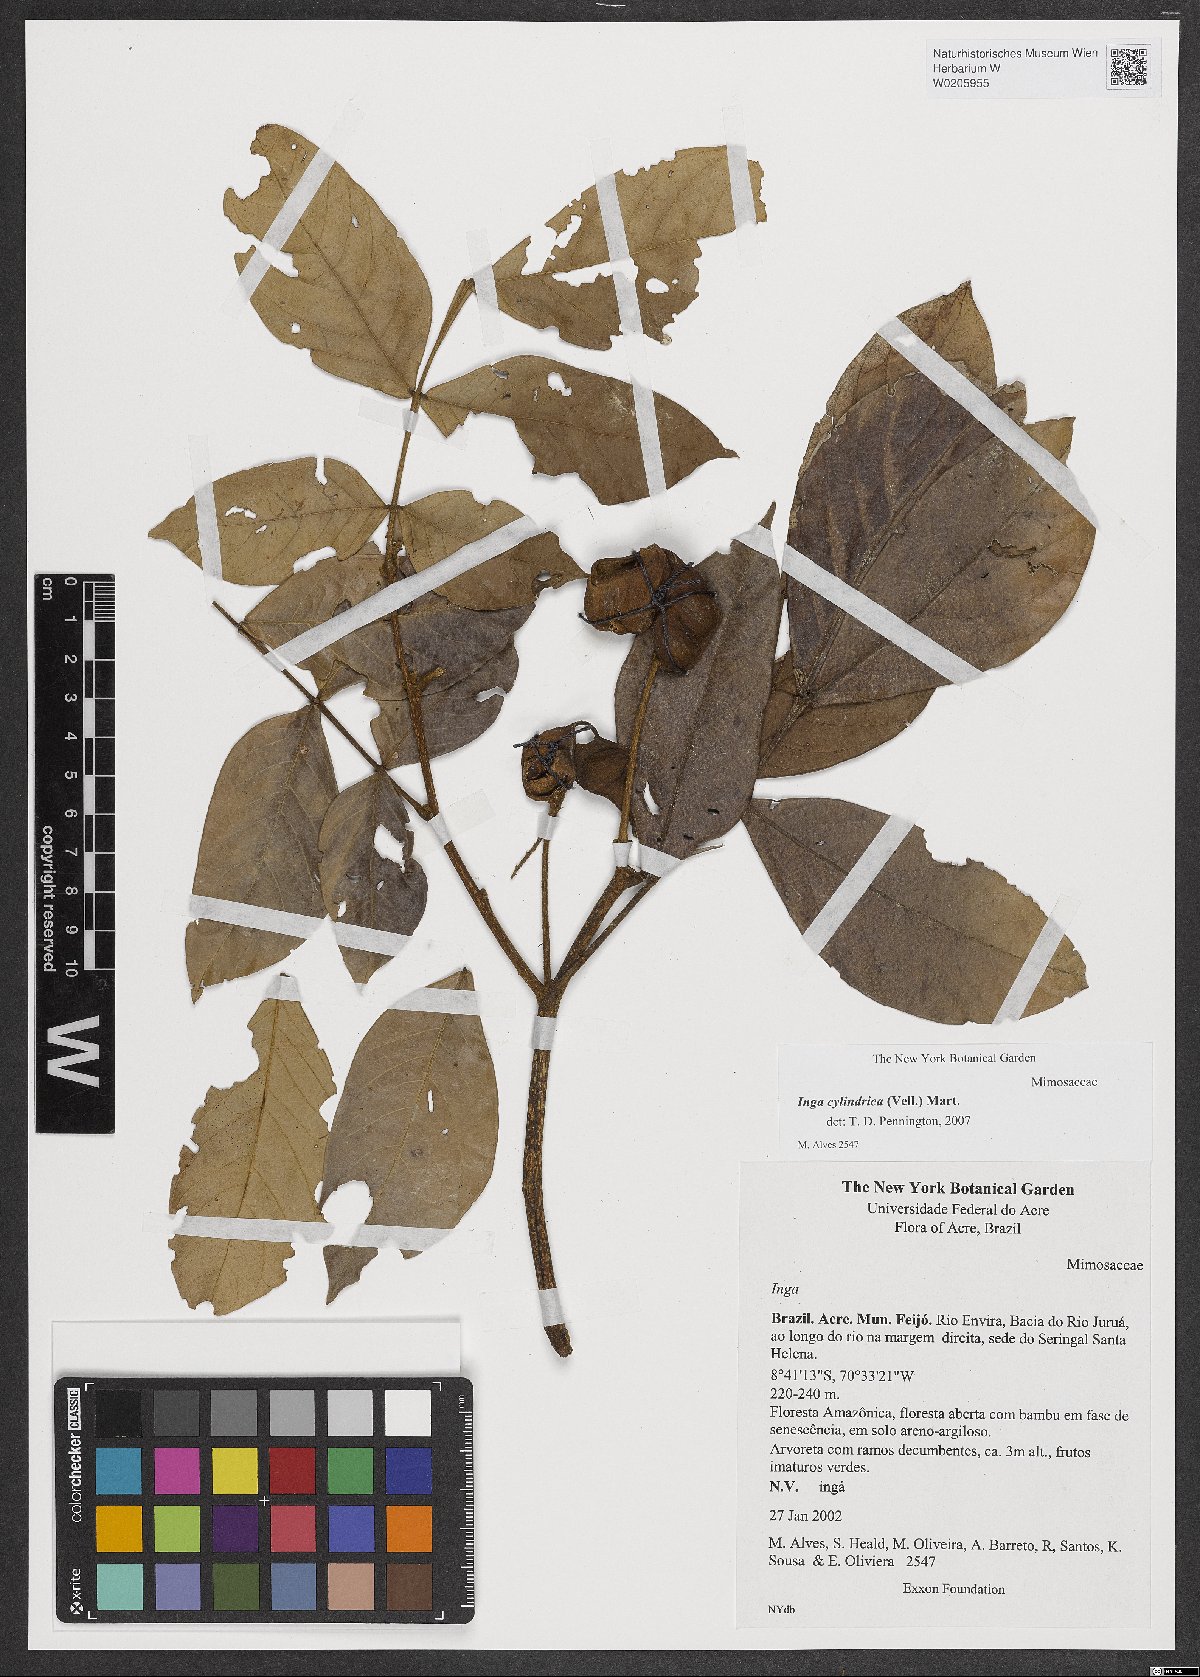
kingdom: Plantae
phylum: Tracheophyta
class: Magnoliopsida
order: Fabales
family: Fabaceae
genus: Inga
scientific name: Inga cylindrica
